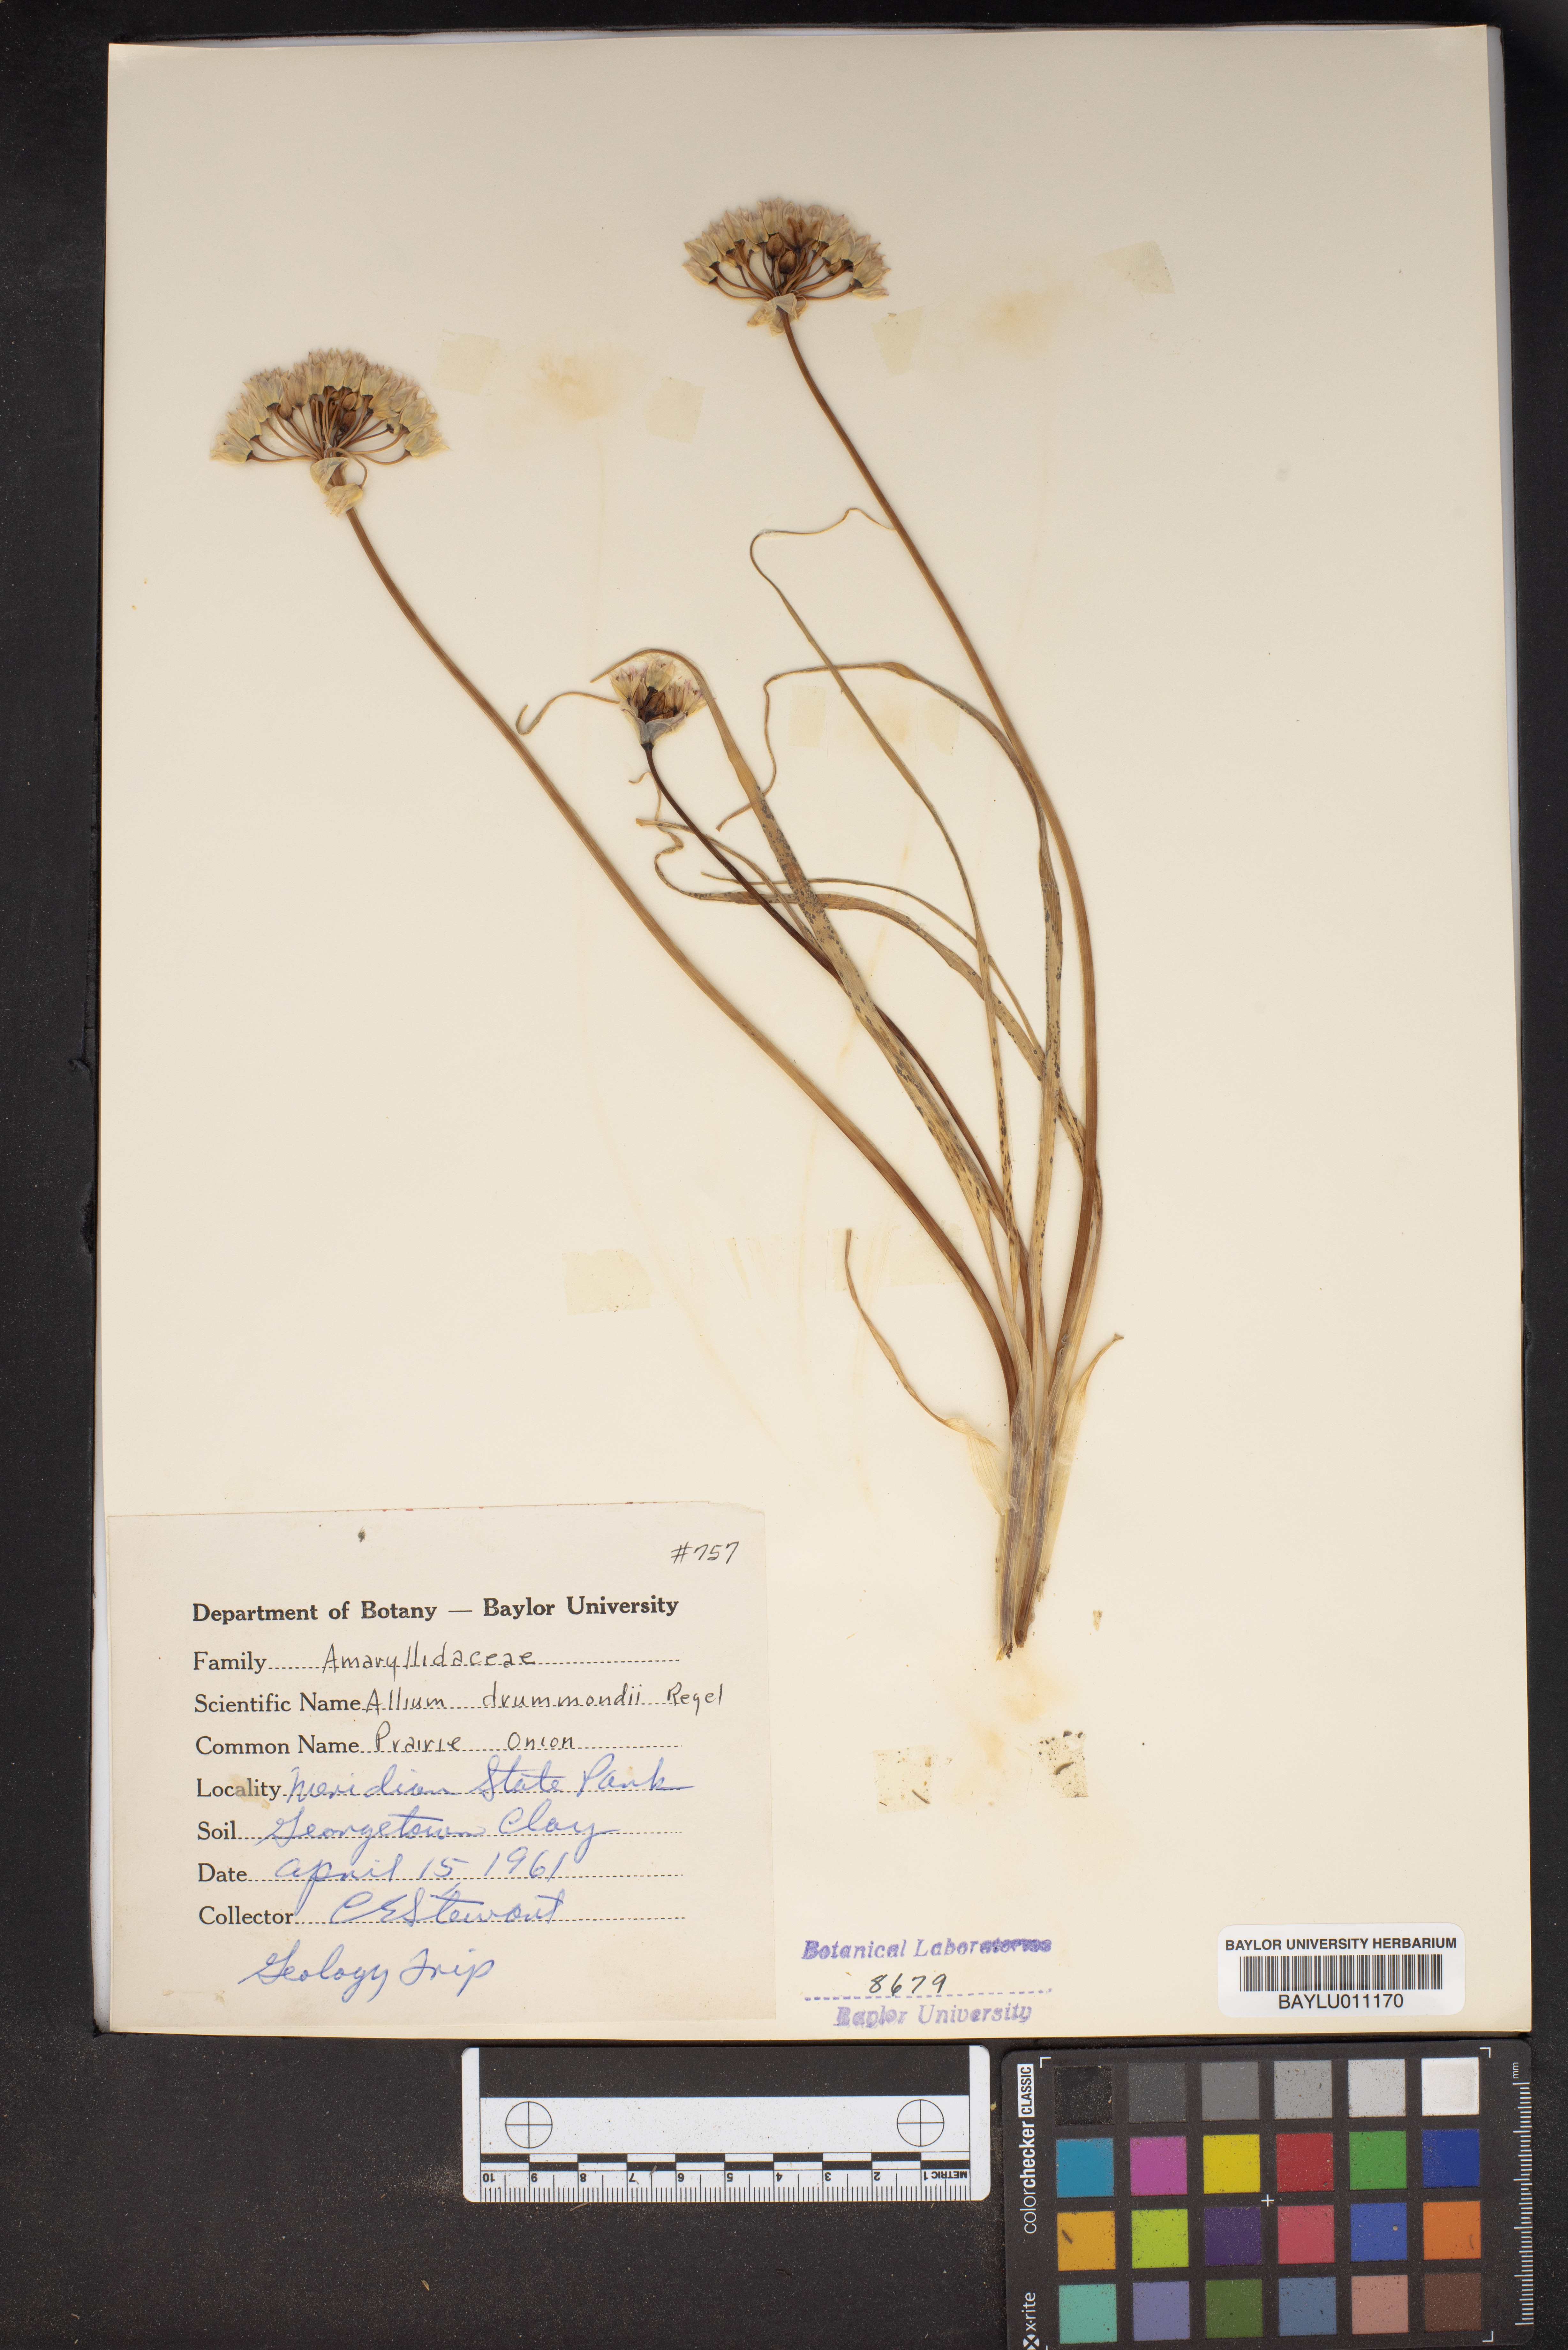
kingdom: Plantae
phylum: Tracheophyta
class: Liliopsida
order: Asparagales
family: Amaryllidaceae
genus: Allium
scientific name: Allium drummondii
